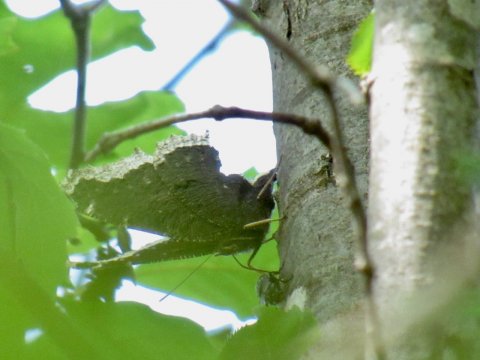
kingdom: Animalia
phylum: Arthropoda
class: Insecta
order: Lepidoptera
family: Nymphalidae
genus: Nymphalis
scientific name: Nymphalis antiopa
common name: Mourning Cloak
